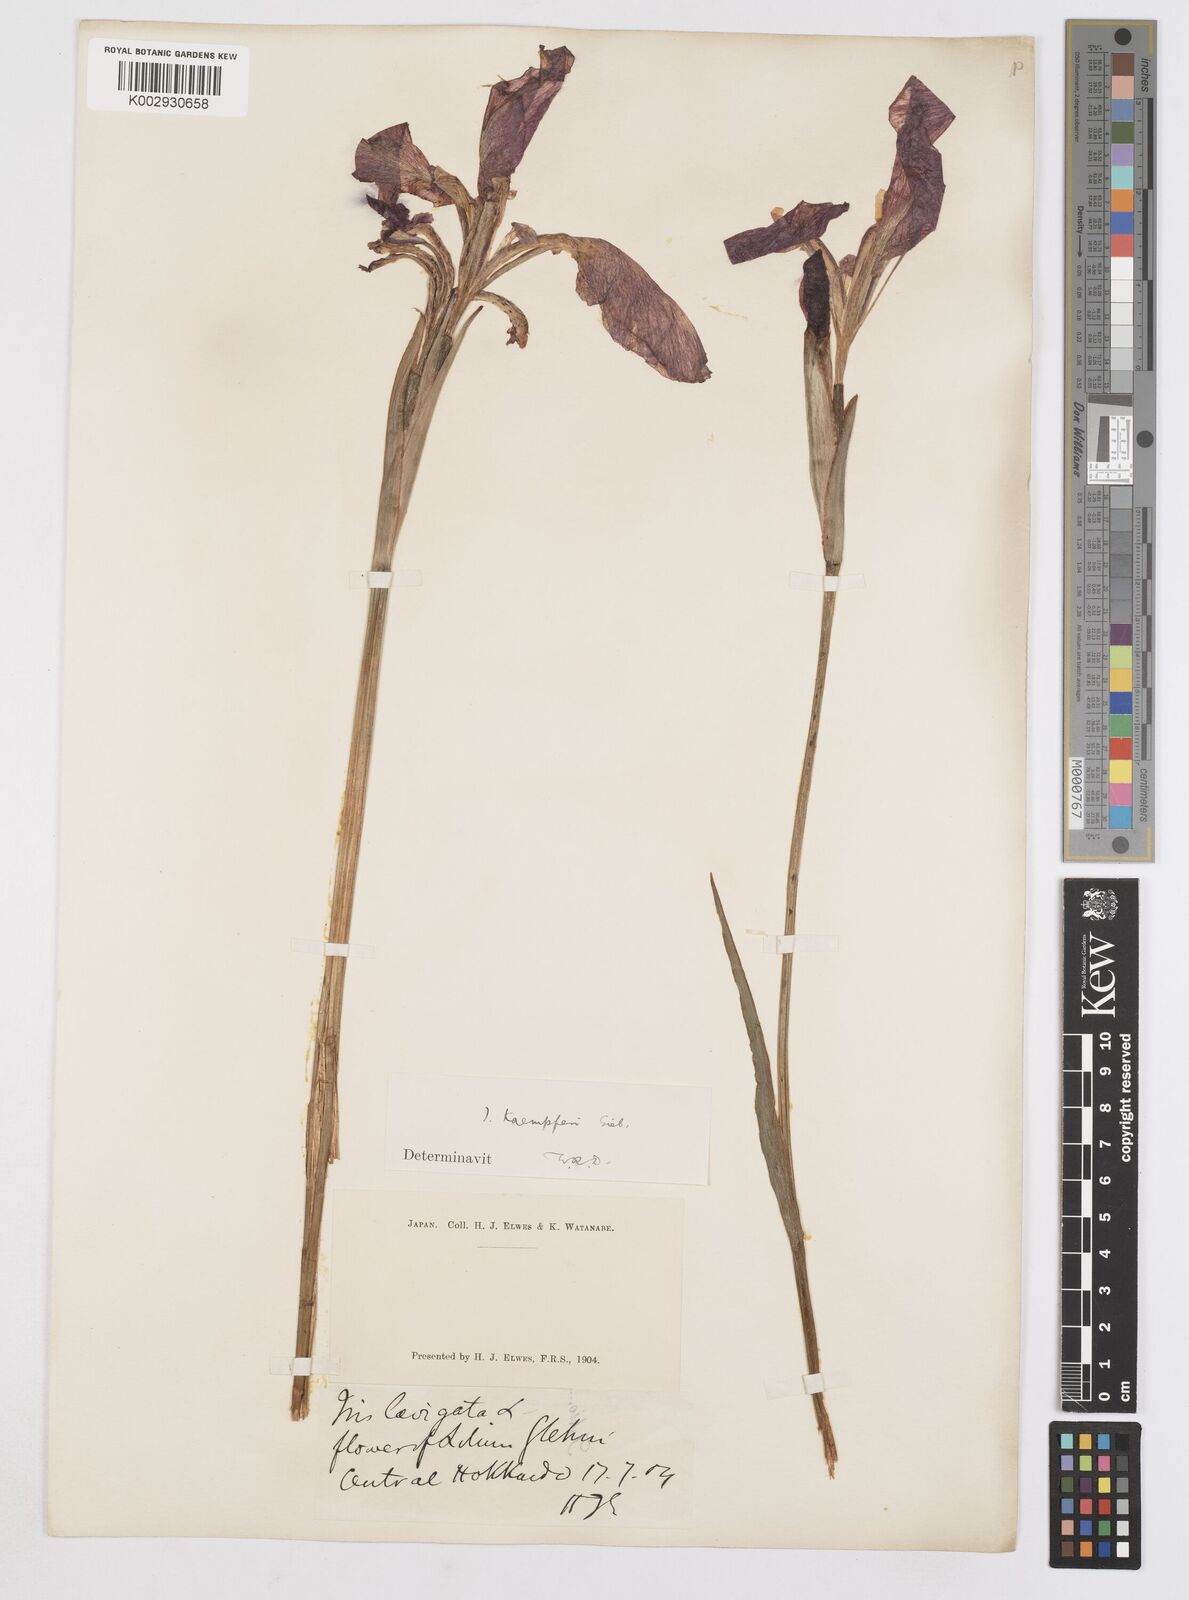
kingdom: Plantae
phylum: Tracheophyta
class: Liliopsida
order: Asparagales
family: Iridaceae
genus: Iris
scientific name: Iris ensata
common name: Beaked iris
